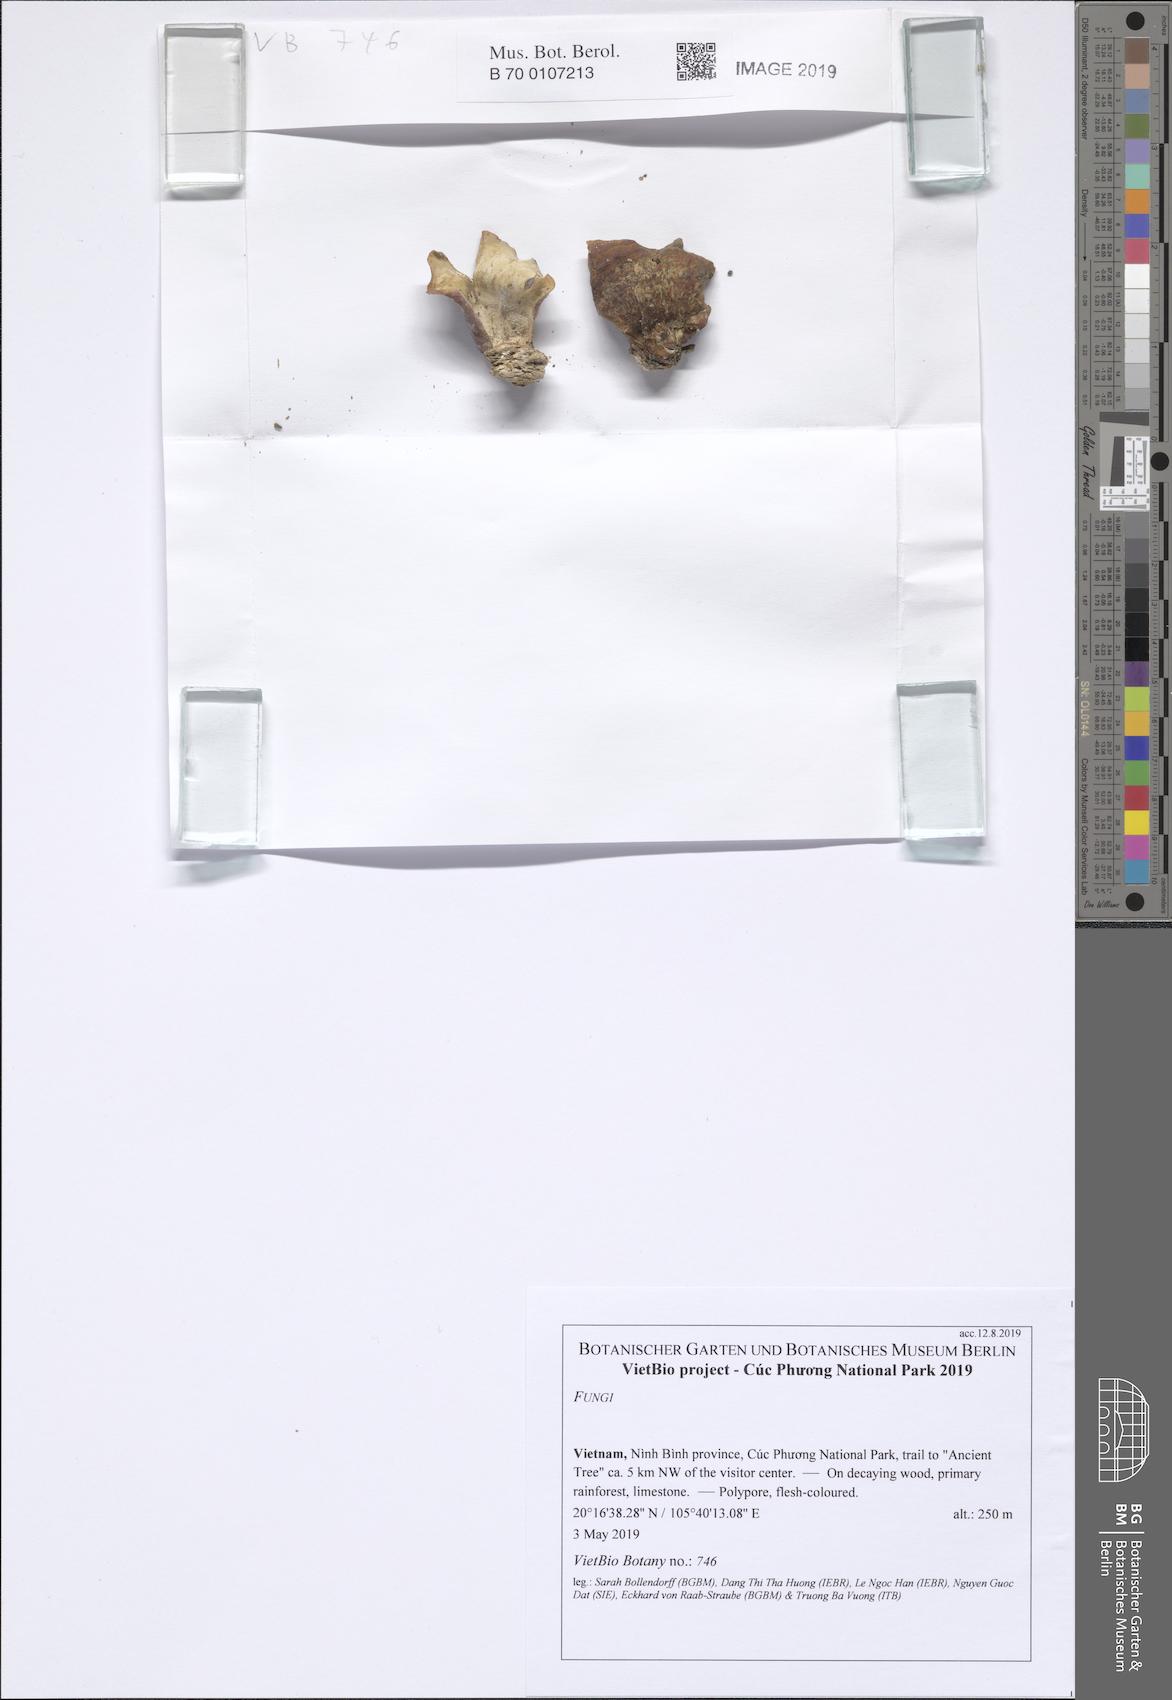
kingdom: Fungi
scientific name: Fungi
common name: Fungi
